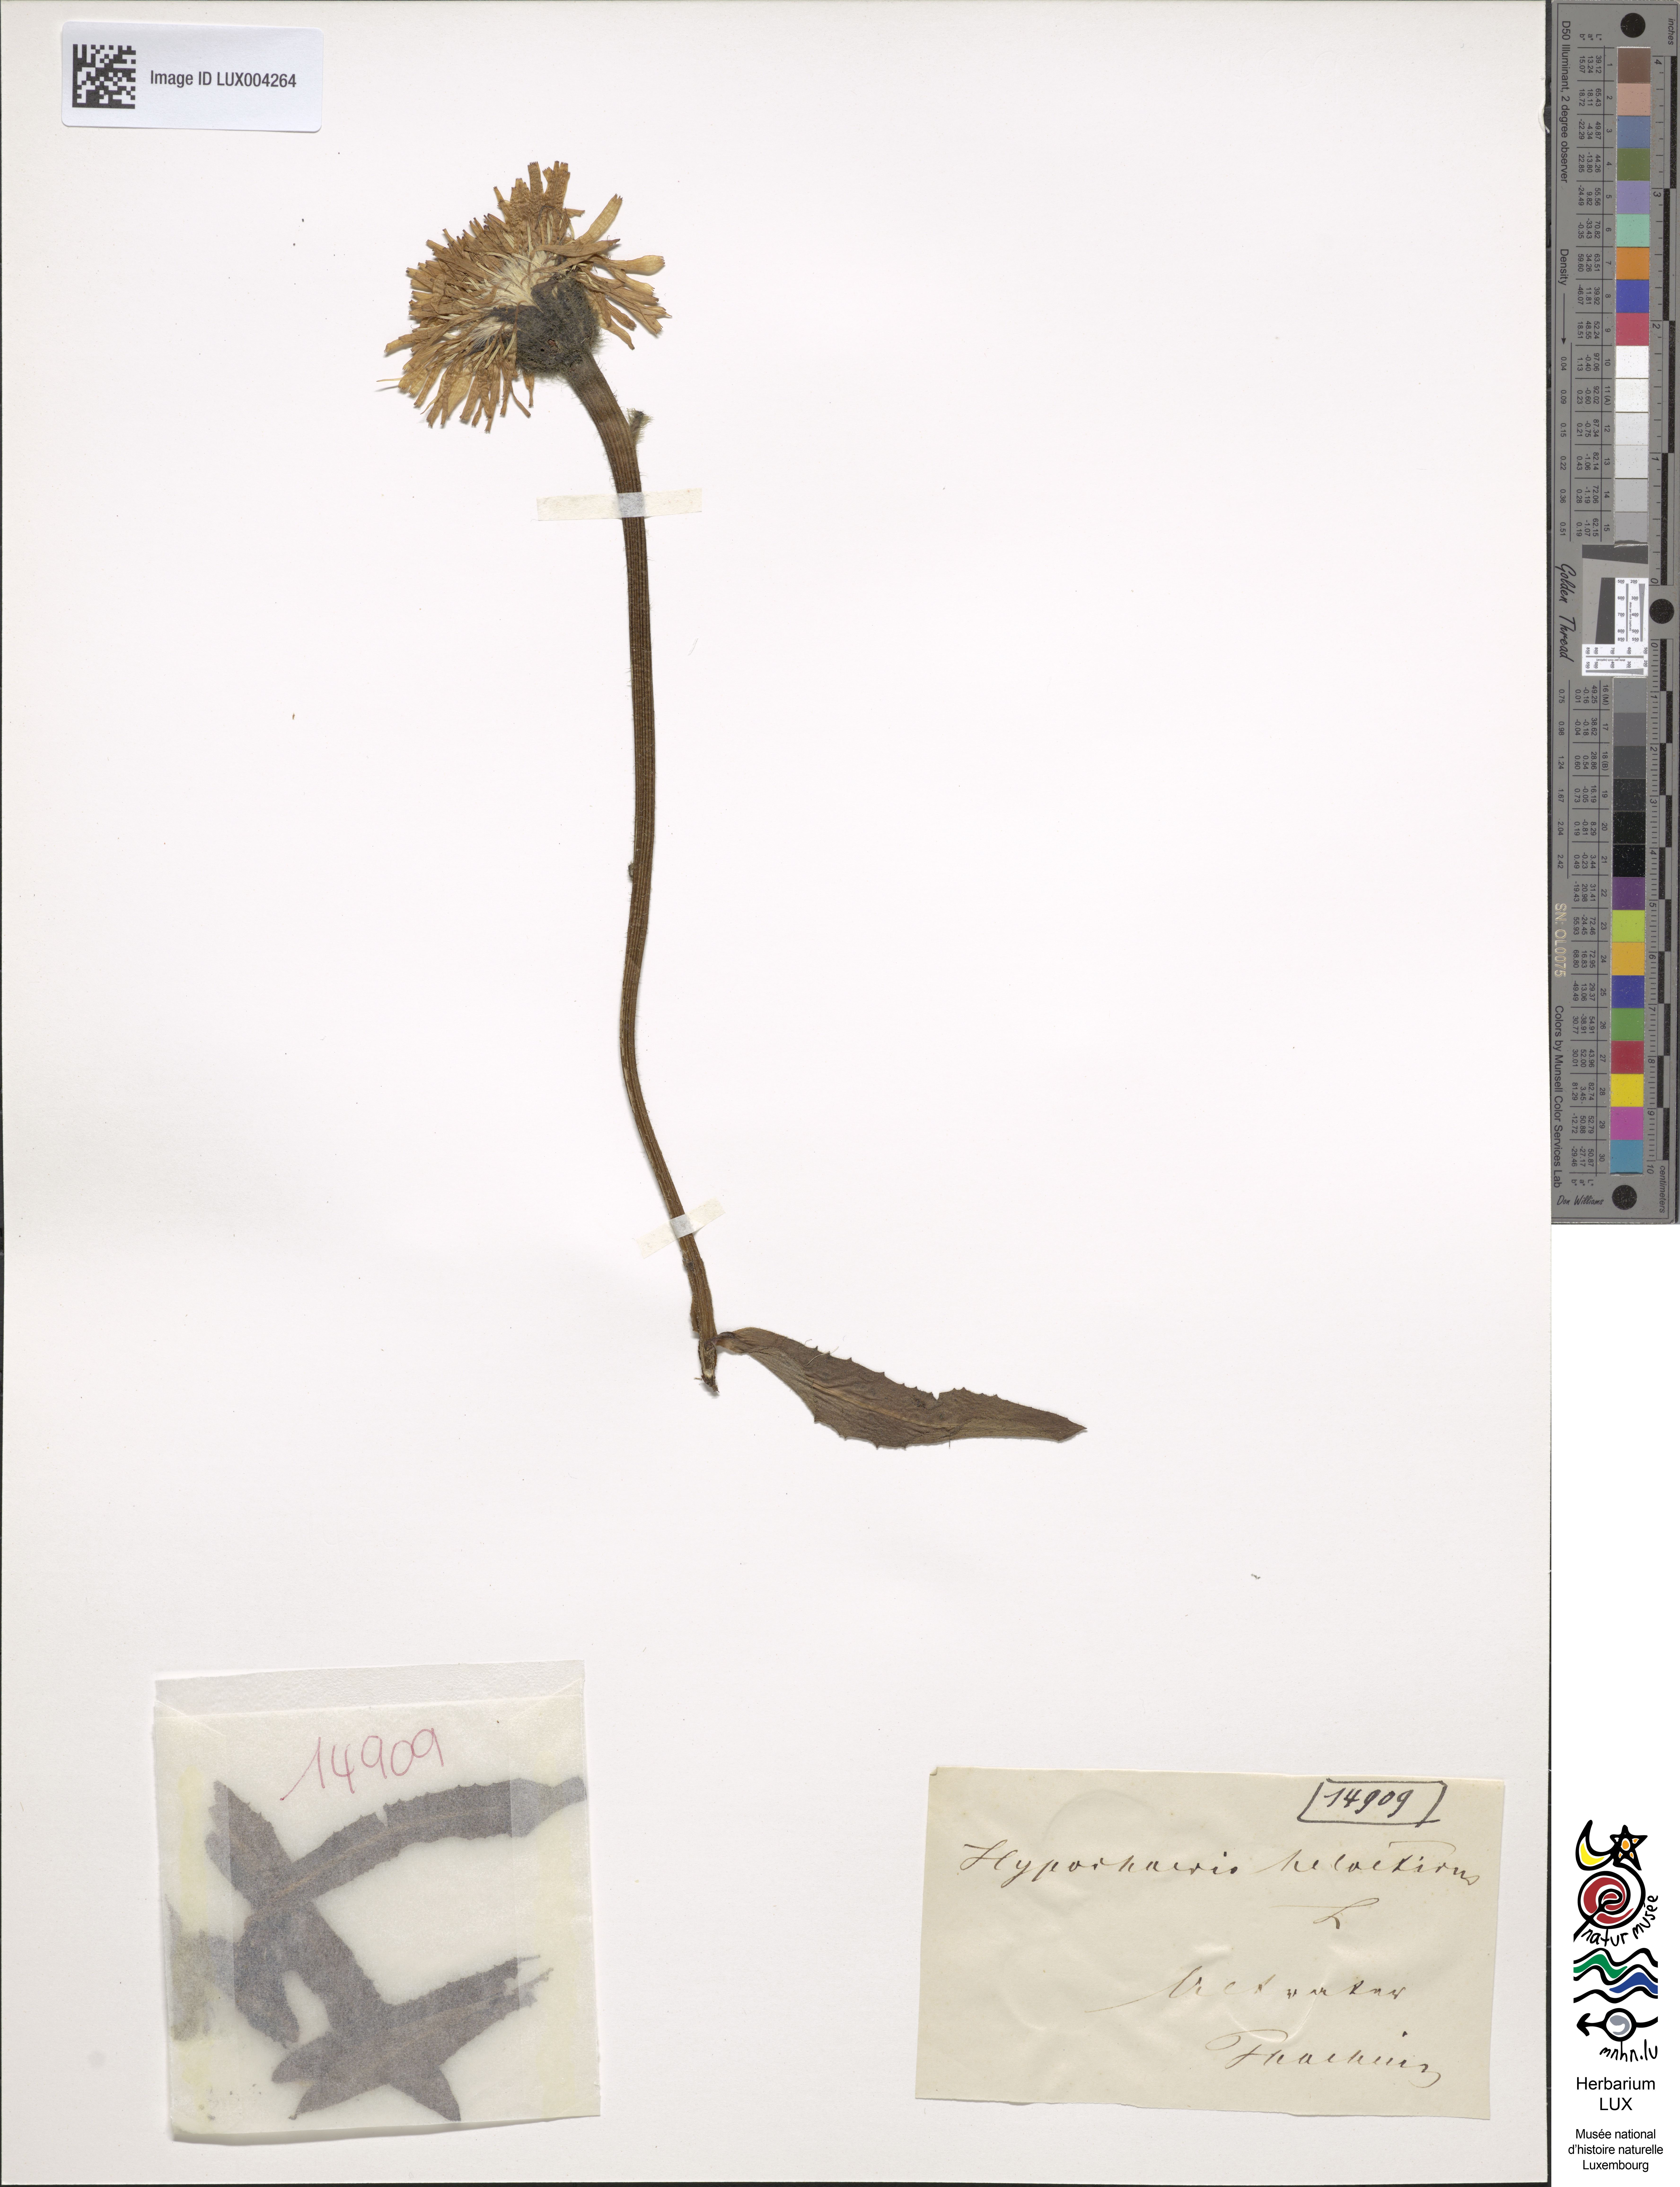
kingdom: Plantae
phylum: Tracheophyta
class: Magnoliopsida
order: Asterales
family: Asteraceae
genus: Hypochoeris
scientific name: Hypochoeris
